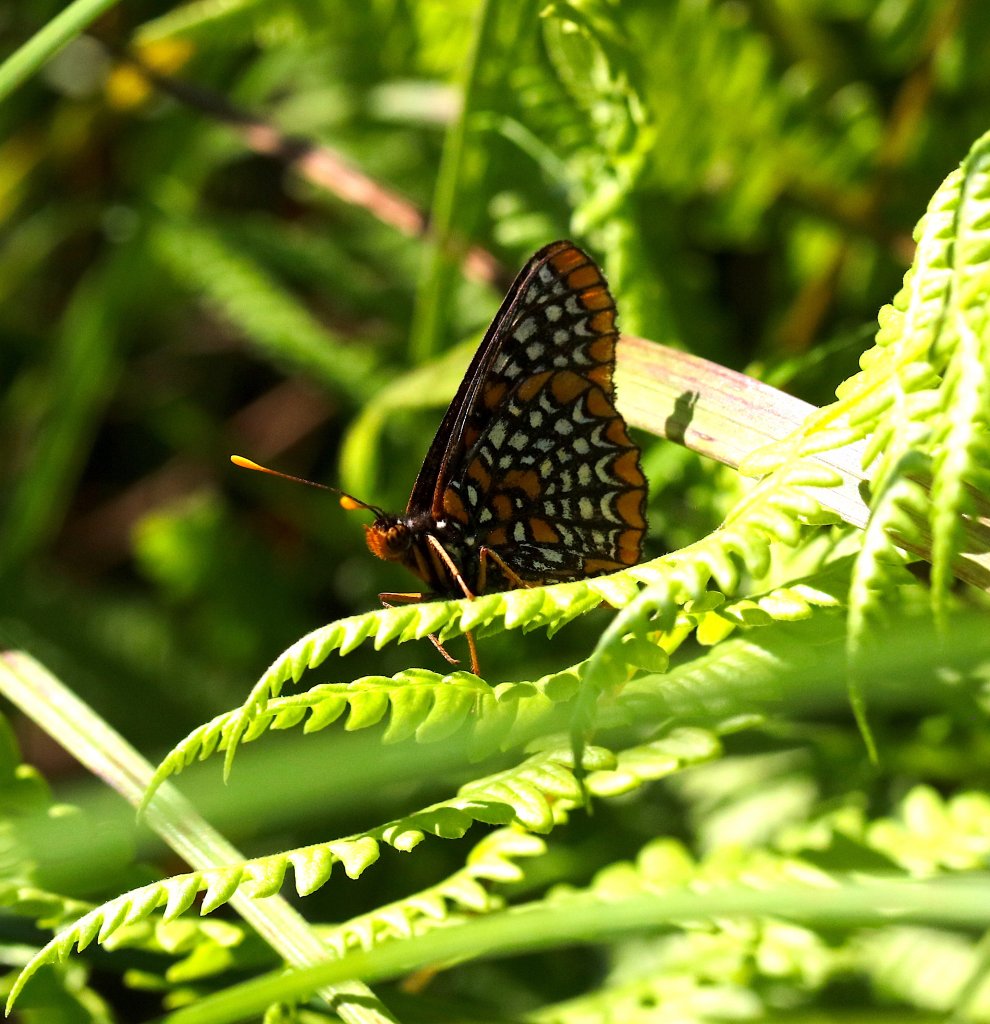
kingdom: Animalia
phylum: Arthropoda
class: Insecta
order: Lepidoptera
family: Nymphalidae
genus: Euphydryas
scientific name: Euphydryas phaeton
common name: Baltimore Checkerspot
